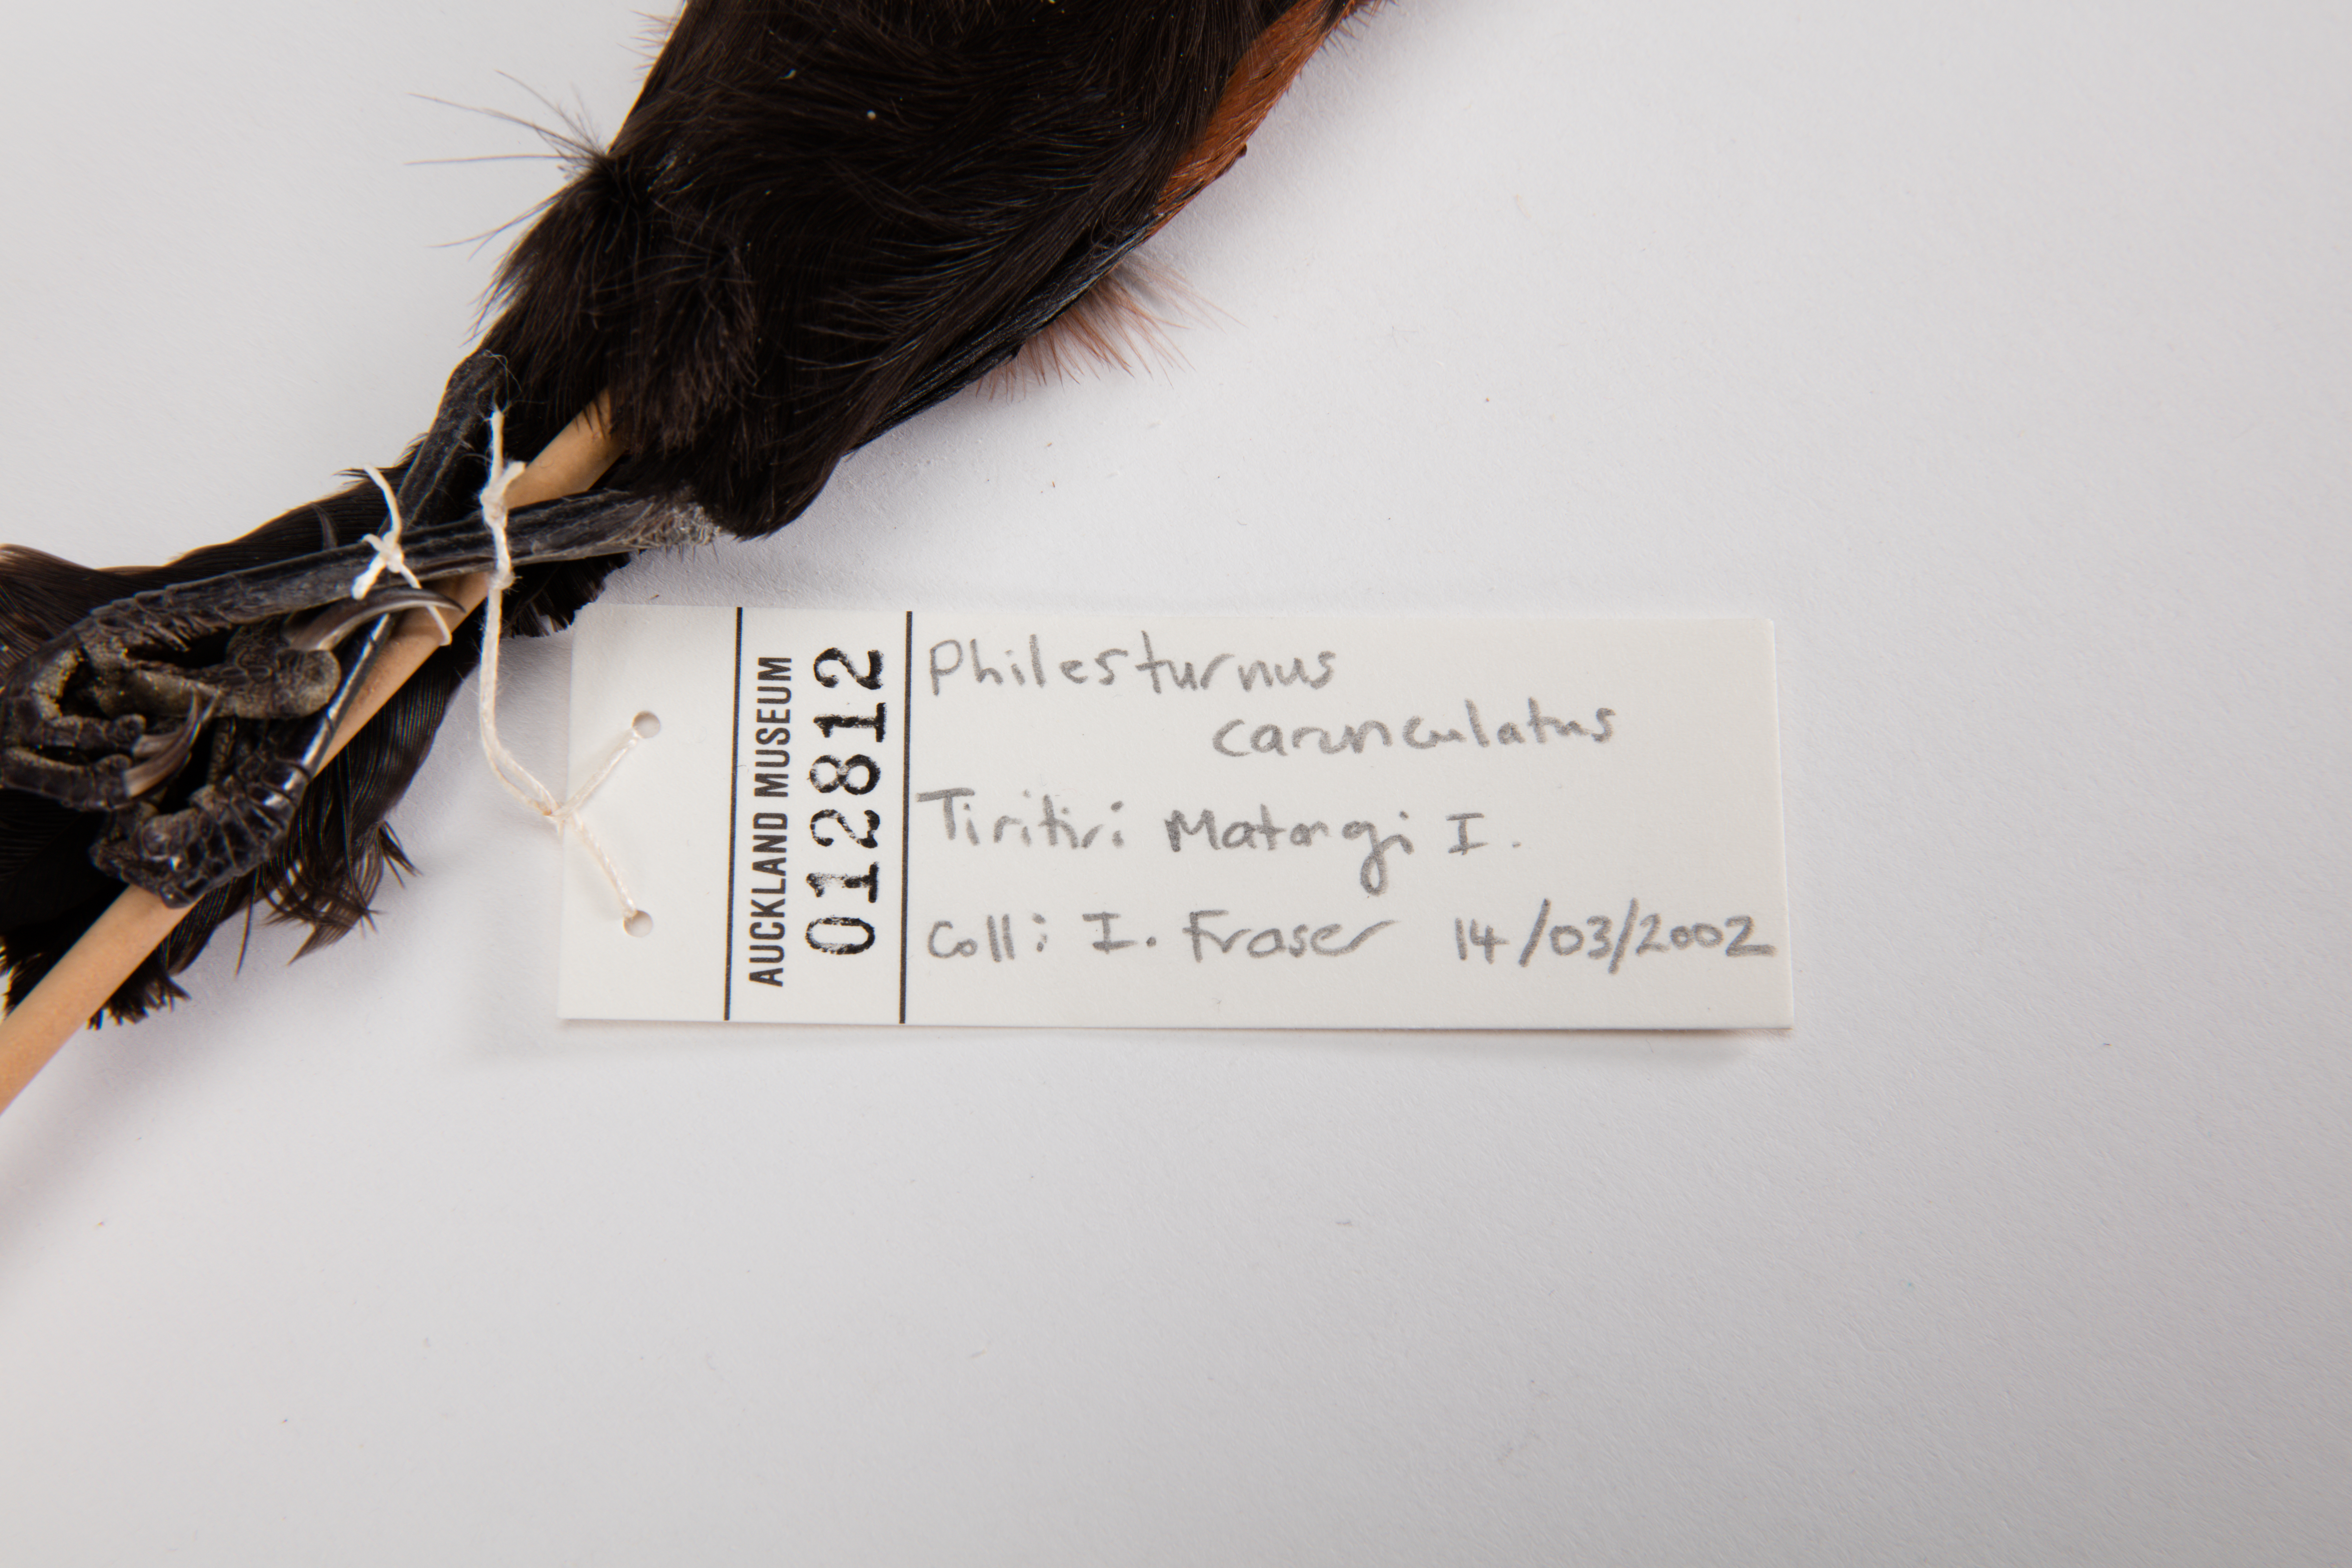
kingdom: Animalia
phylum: Chordata
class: Aves
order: Passeriformes
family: Callaeatidae
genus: Philesturnus
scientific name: Philesturnus carunculatus
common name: South island saddleback
